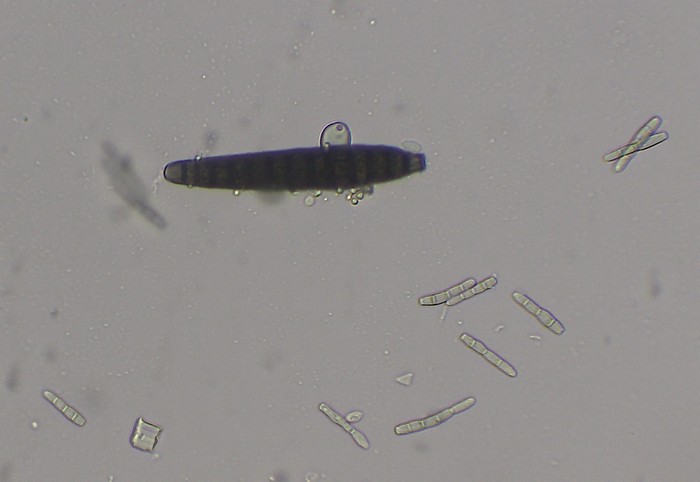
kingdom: Fungi
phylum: Ascomycota
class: Dothideomycetes
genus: Stanjehughesia
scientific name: Stanjehughesia larvata
